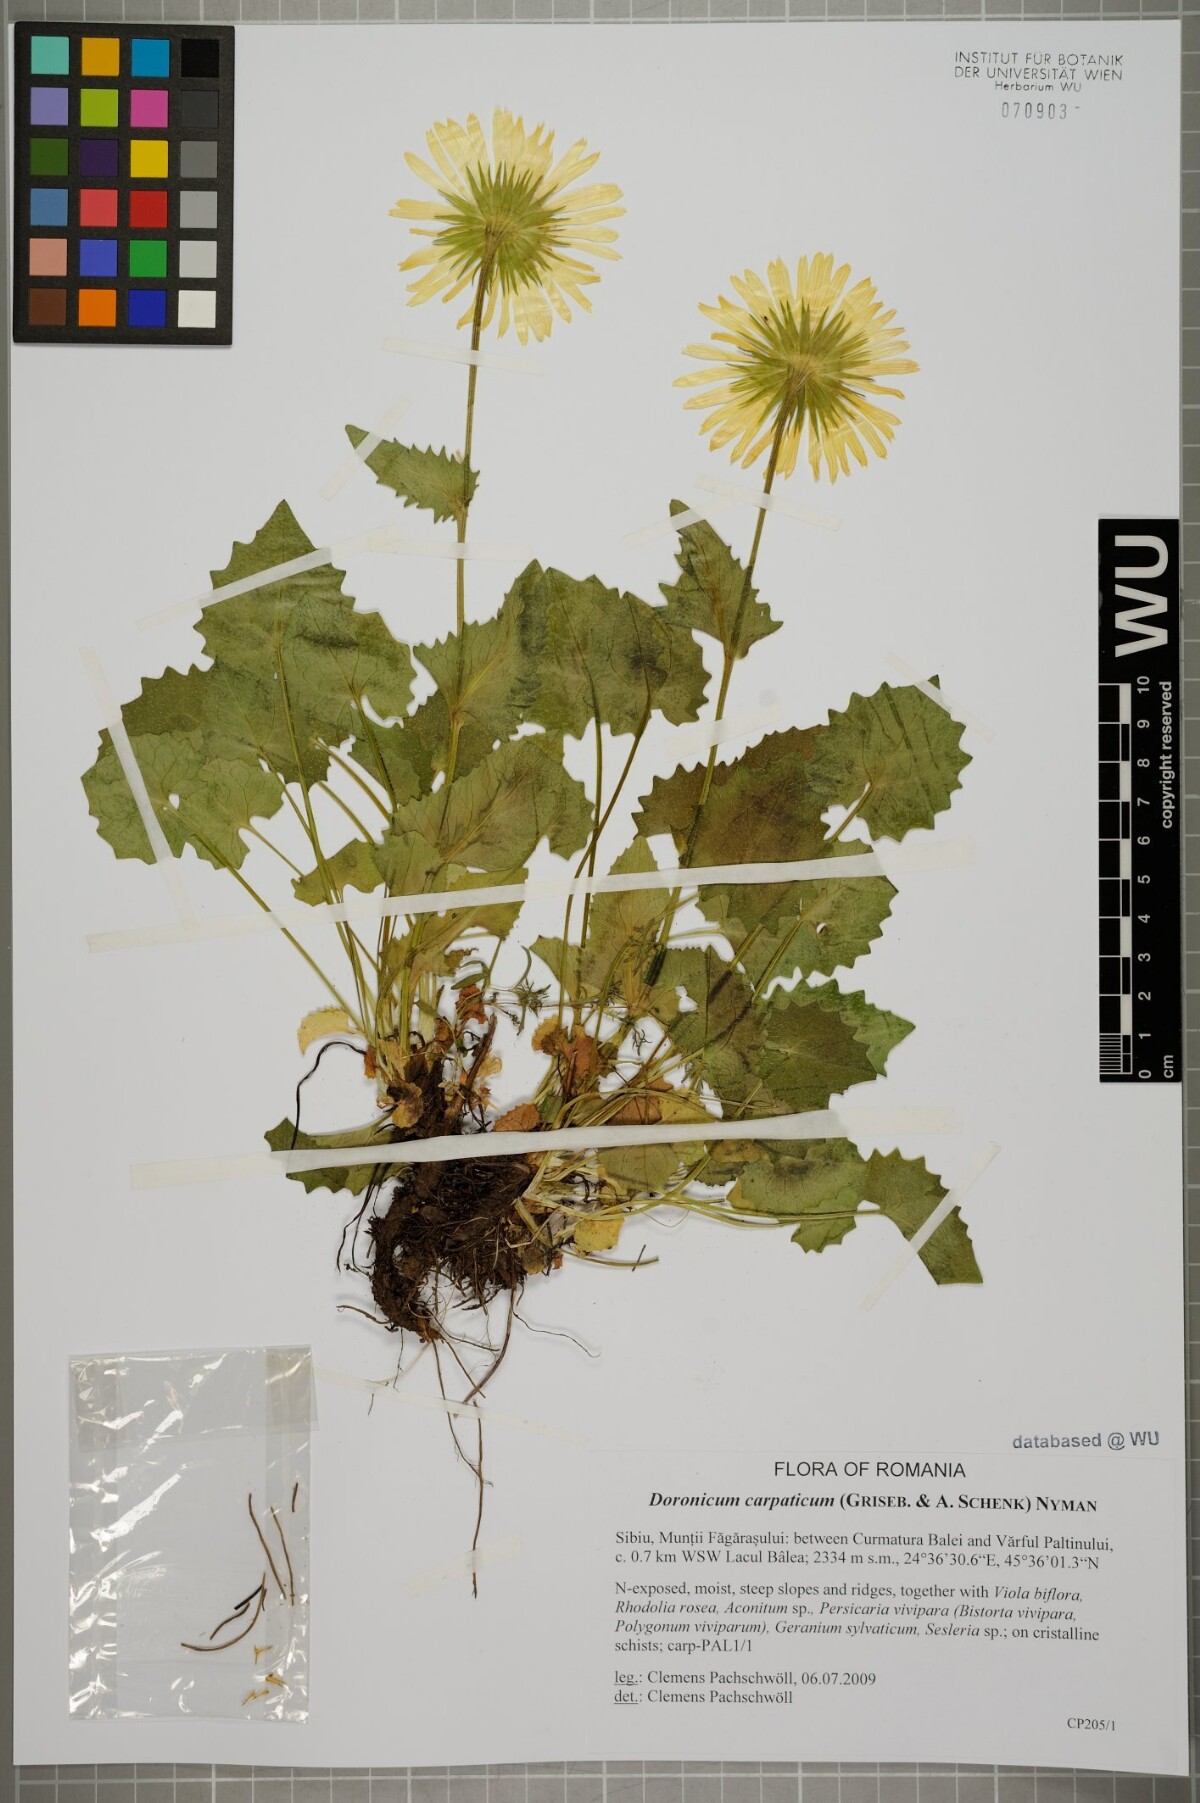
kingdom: Plantae
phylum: Tracheophyta
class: Magnoliopsida
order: Asterales
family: Asteraceae
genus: Doronicum
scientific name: Doronicum carpaticum
